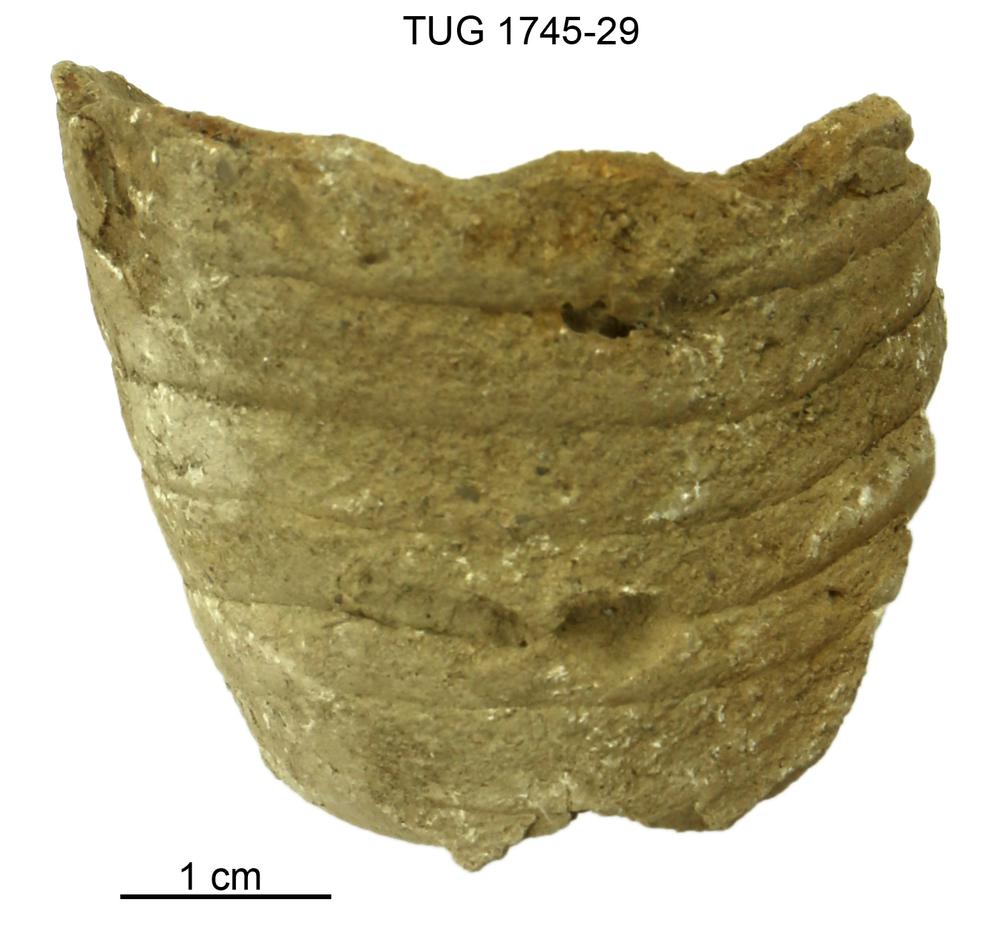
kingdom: Animalia
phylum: Mollusca
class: Cephalopoda
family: Oncoceratidae
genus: Beloitoceras
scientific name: Beloitoceras
